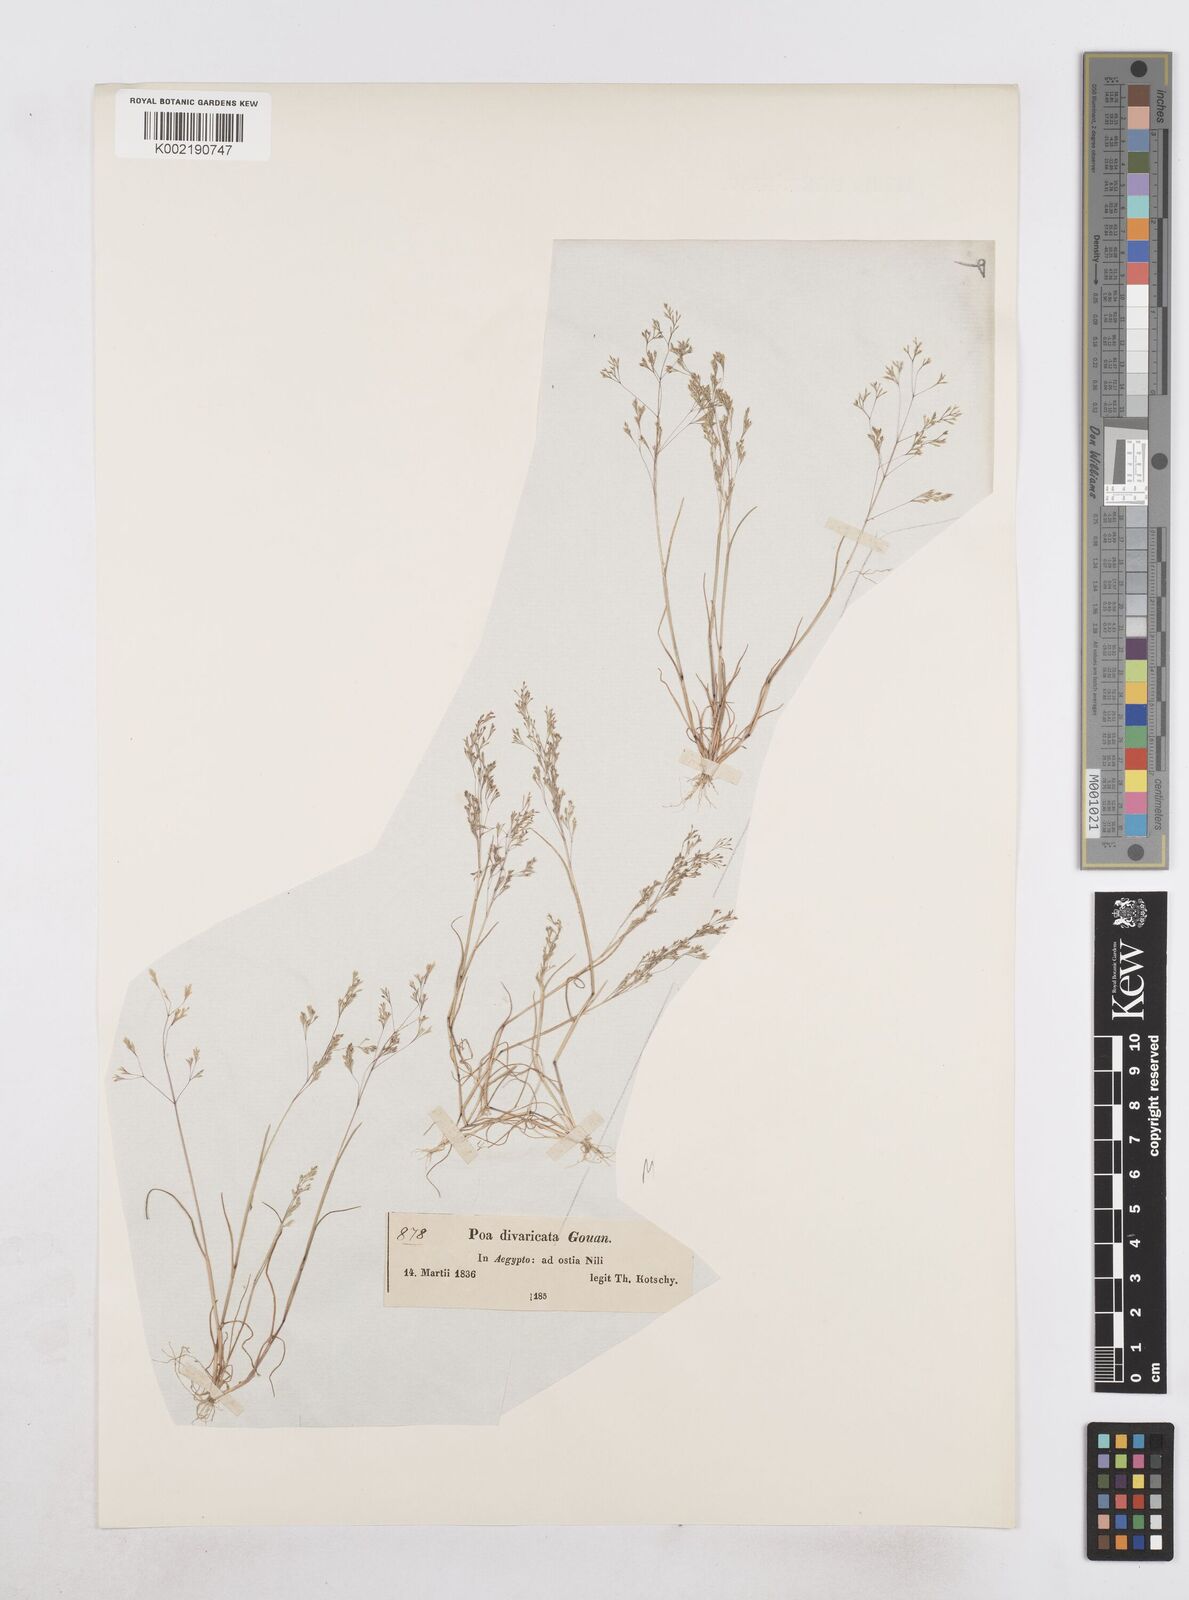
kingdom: Plantae
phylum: Tracheophyta
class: Liliopsida
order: Poales
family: Poaceae
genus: Sphenopus
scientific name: Sphenopus divaricatus
